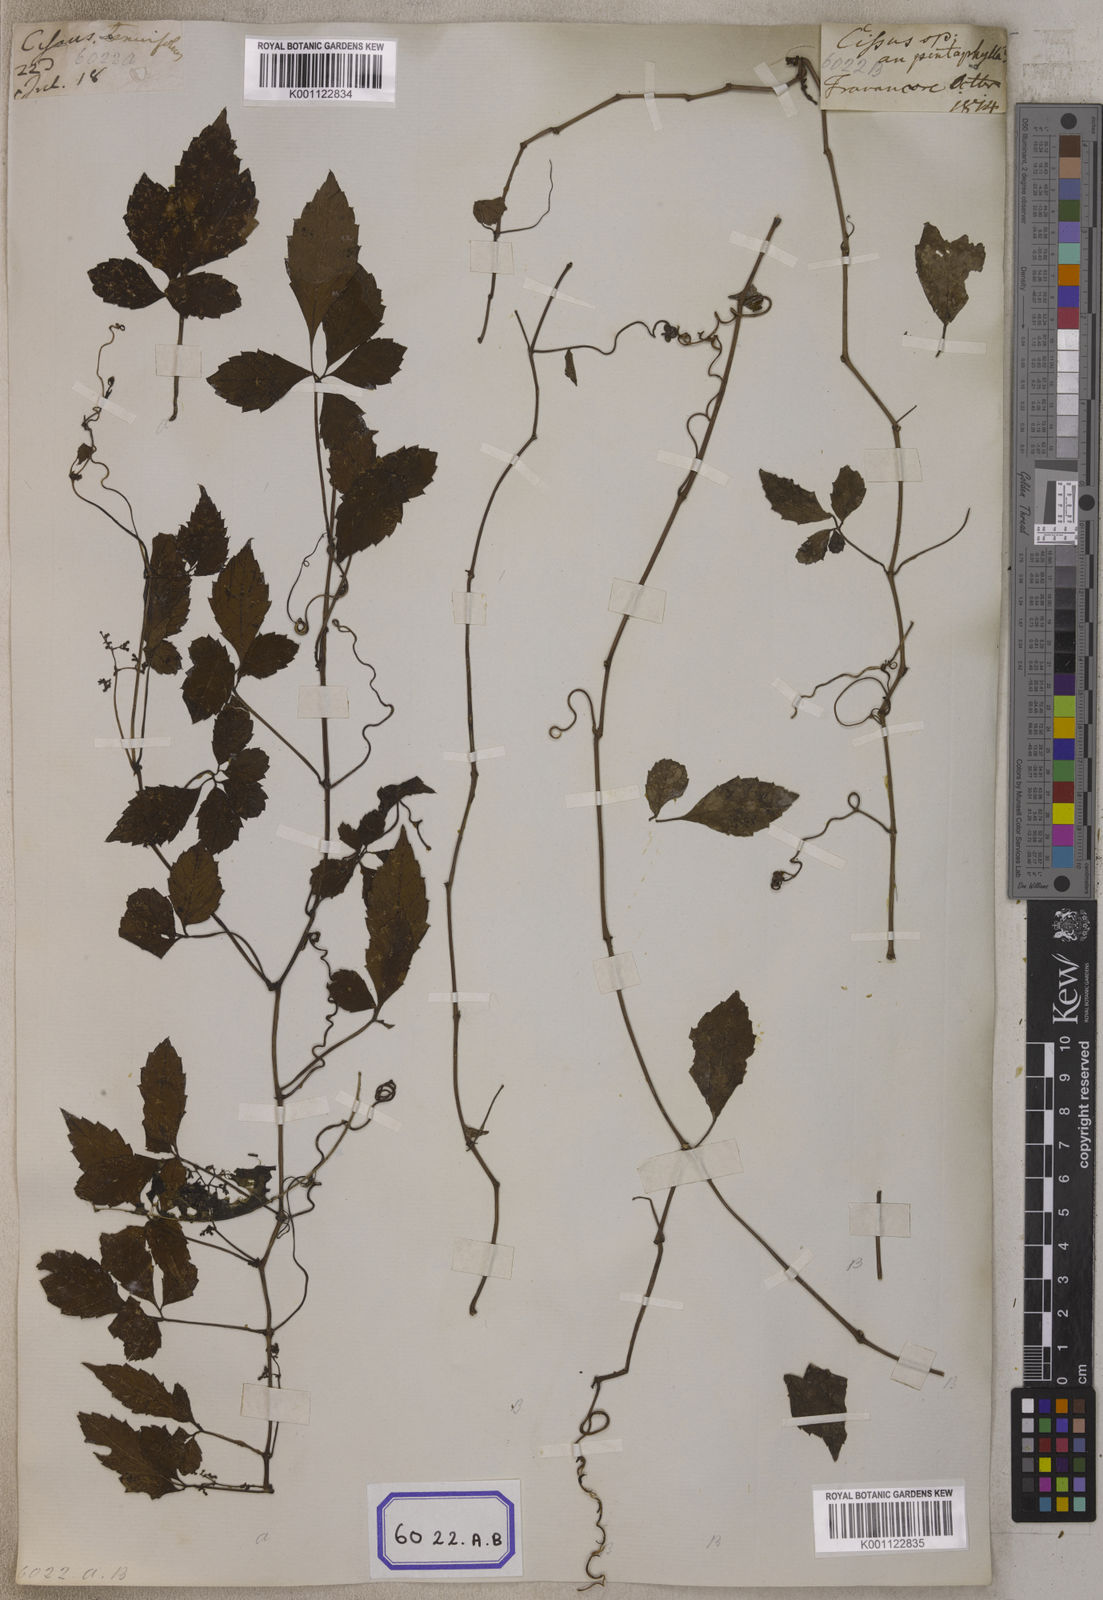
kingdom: Plantae
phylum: Tracheophyta
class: Magnoliopsida
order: Vitales
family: Vitaceae
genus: Causonis
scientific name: Causonis japonica
